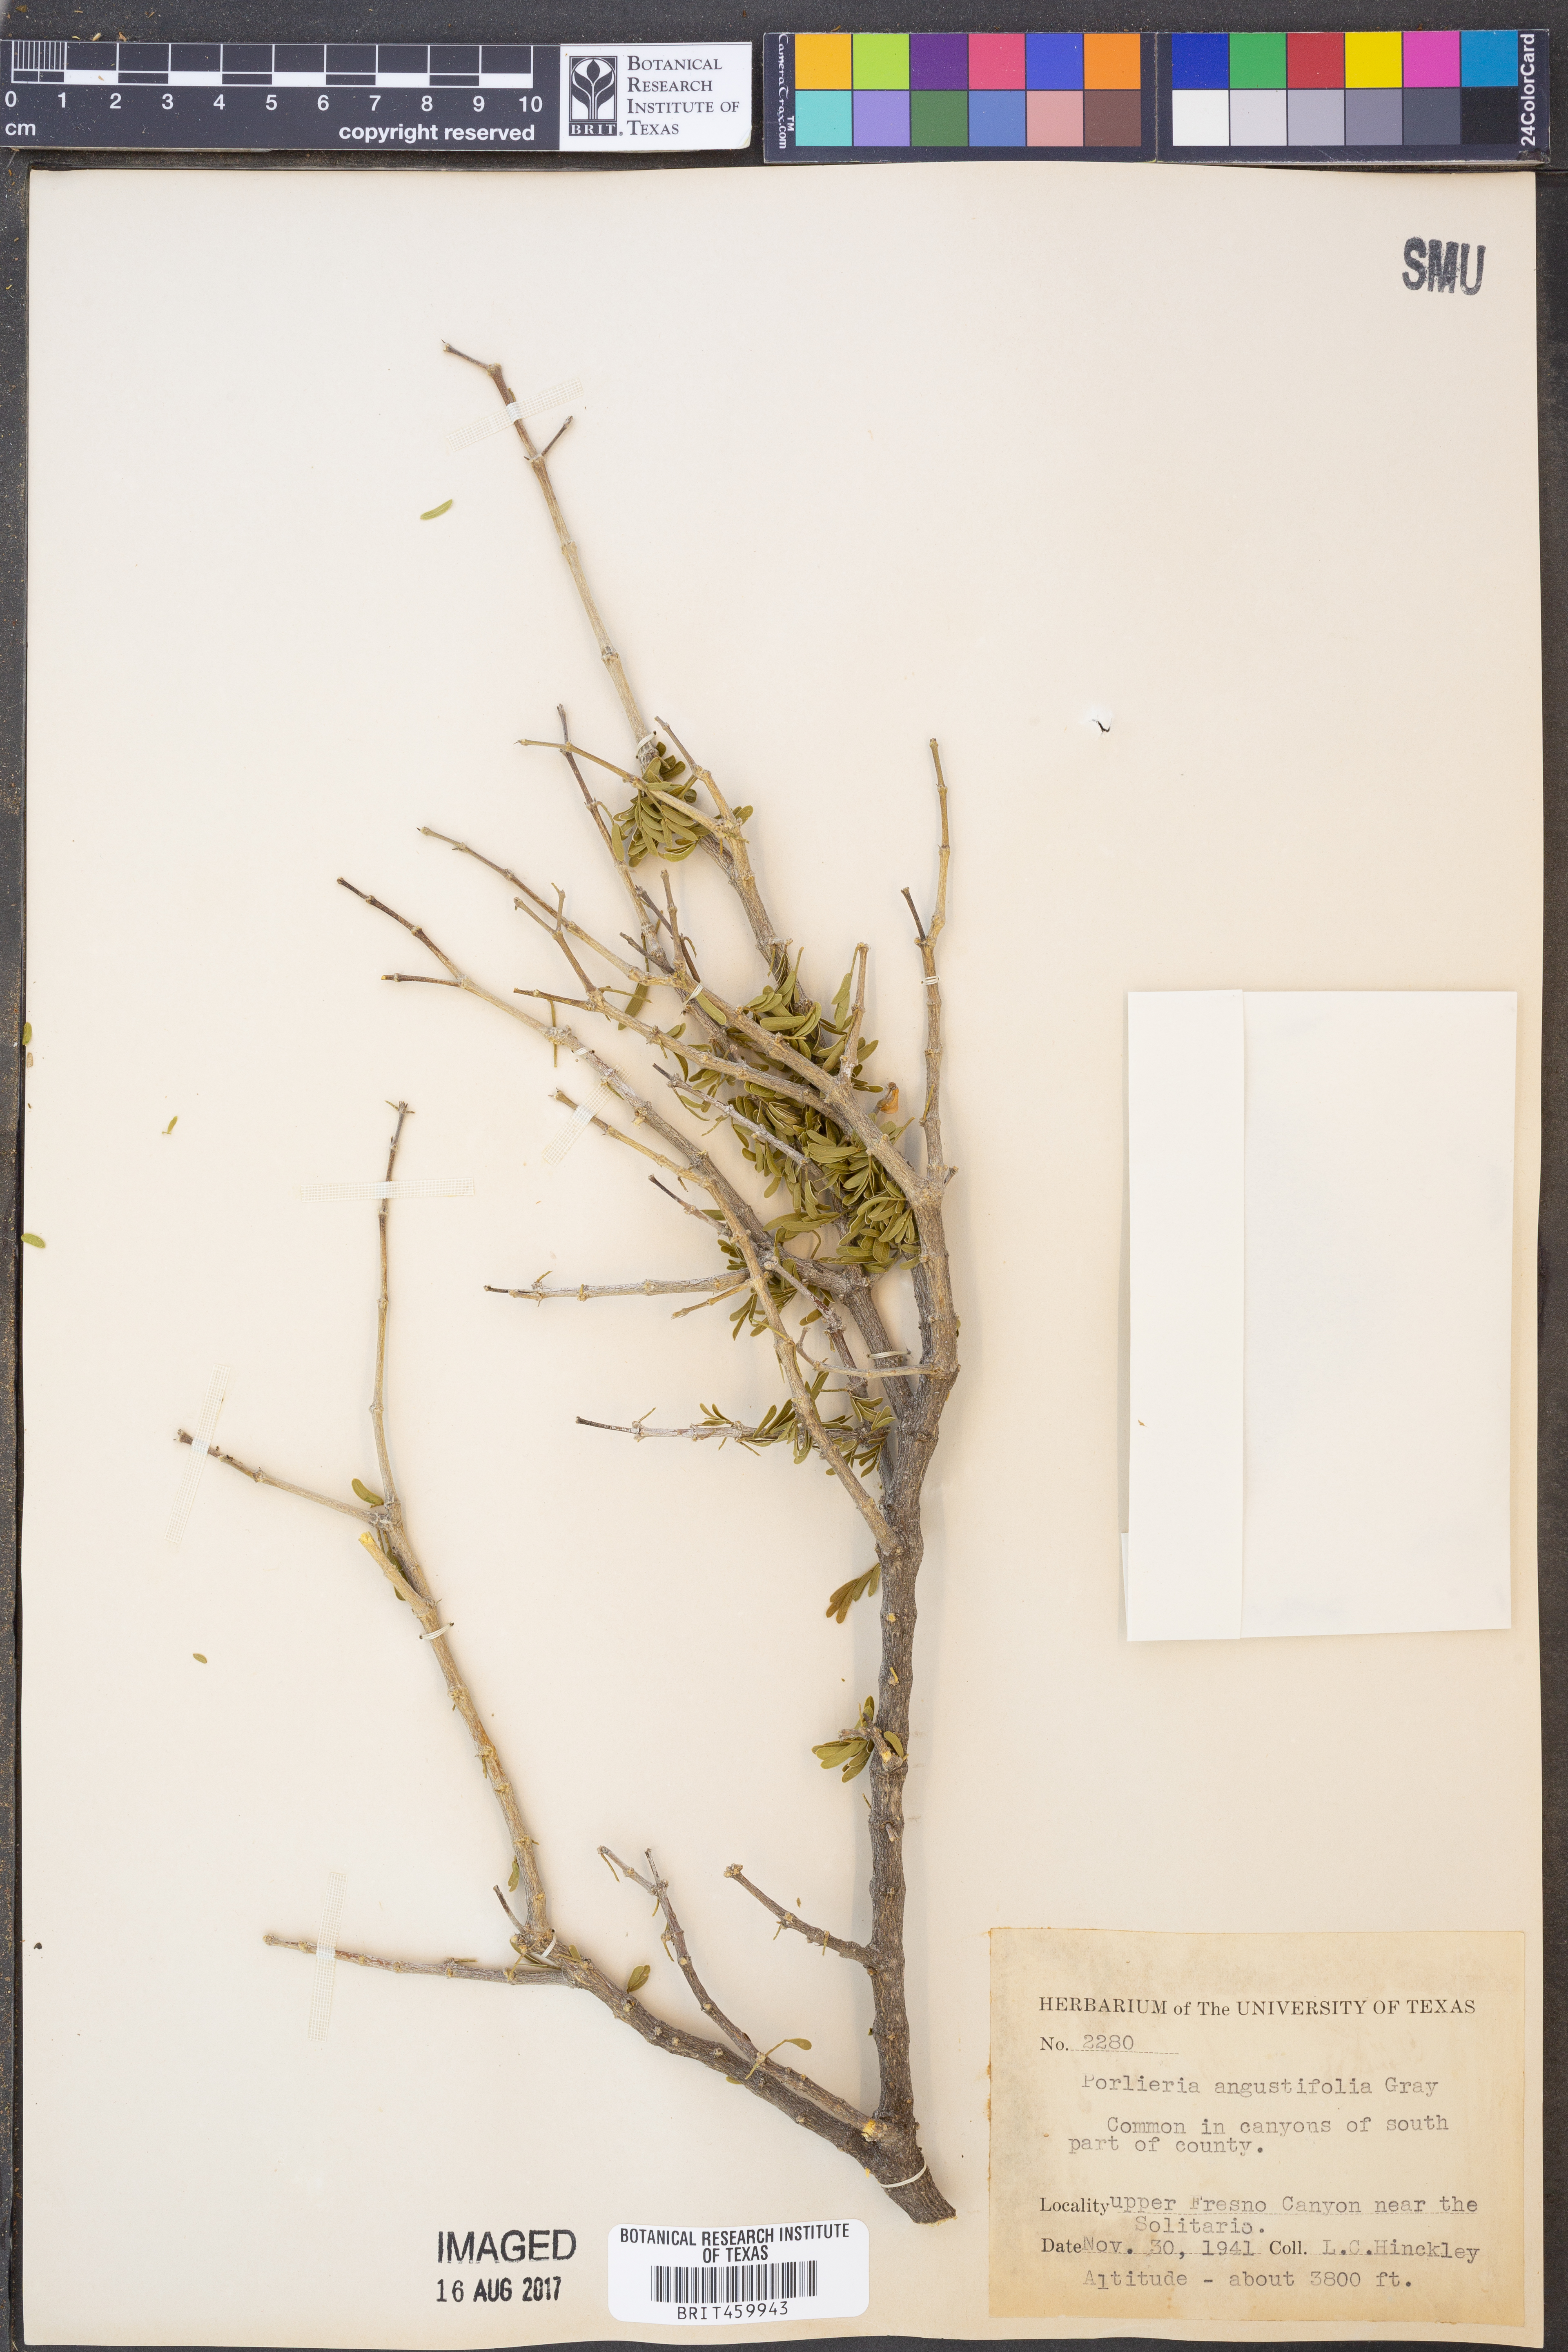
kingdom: Plantae
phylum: Tracheophyta
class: Magnoliopsida
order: Zygophyllales
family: Zygophyllaceae
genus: Porlieria
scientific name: Porlieria angustifolia
